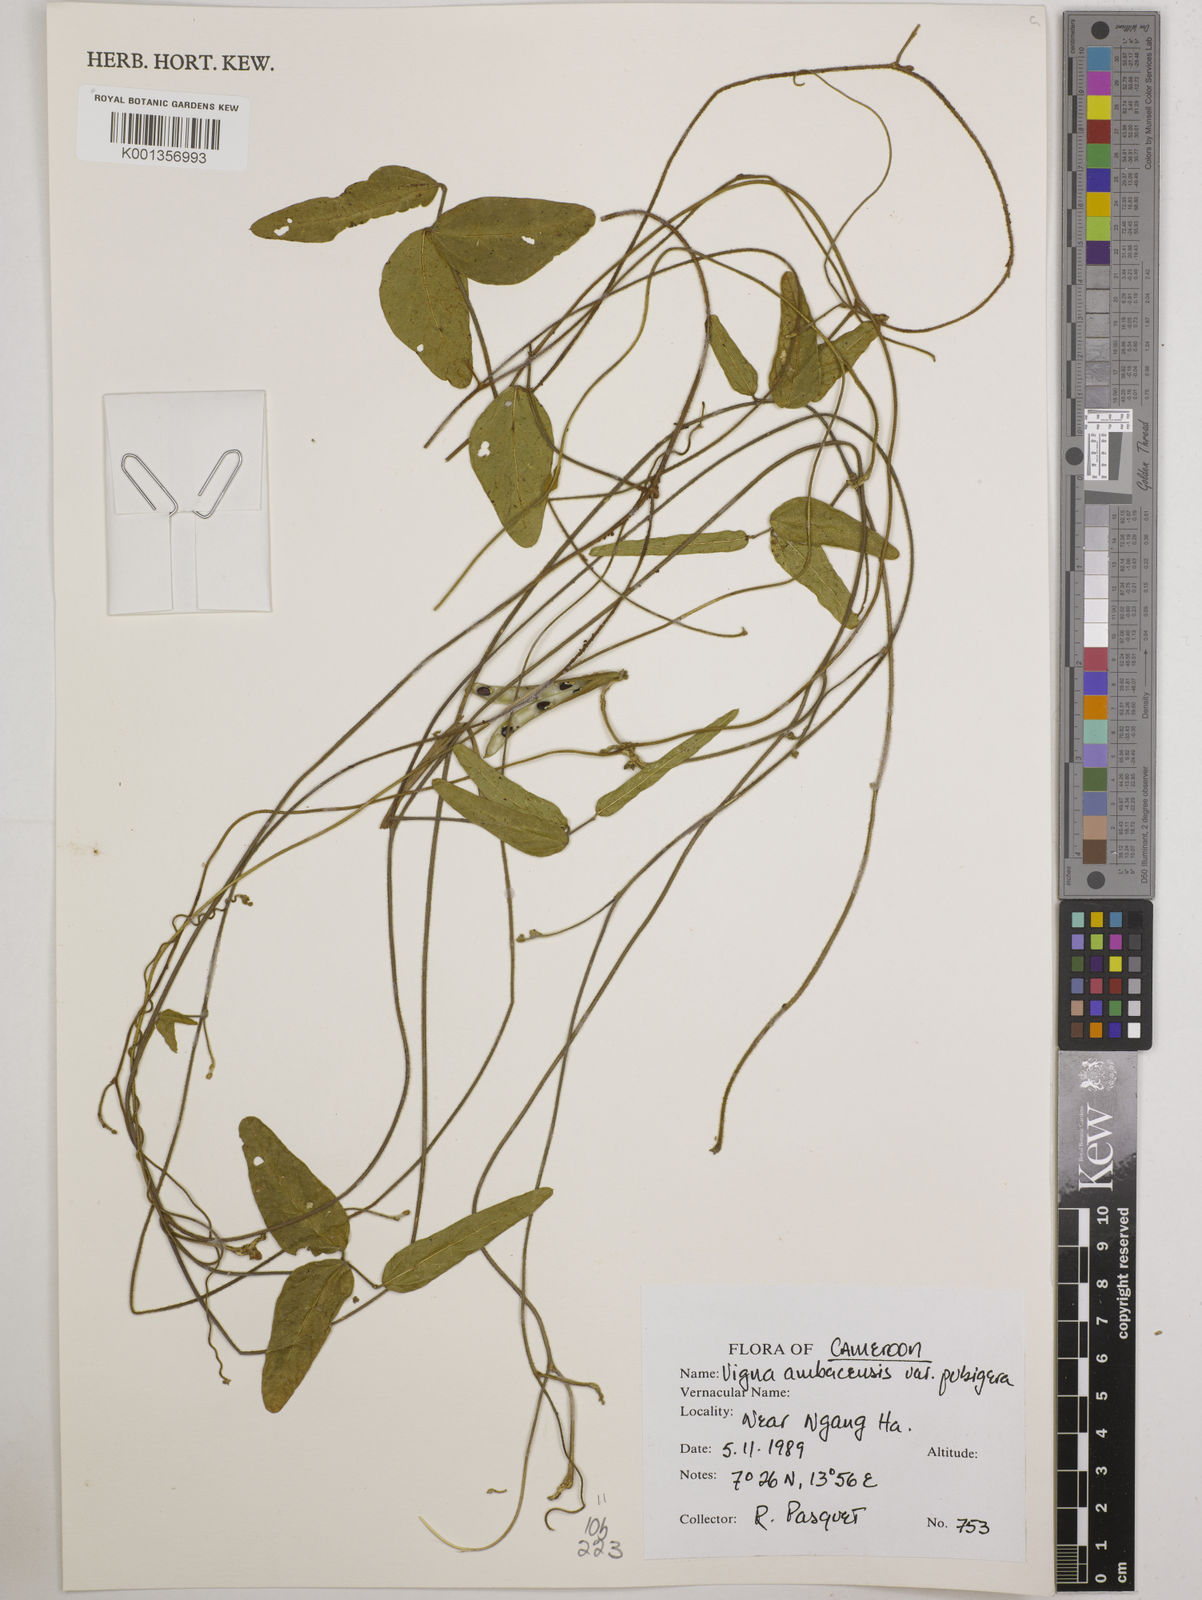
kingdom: Plantae
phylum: Tracheophyta
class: Magnoliopsida
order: Fabales
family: Fabaceae
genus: Vigna
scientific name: Vigna pubigera
